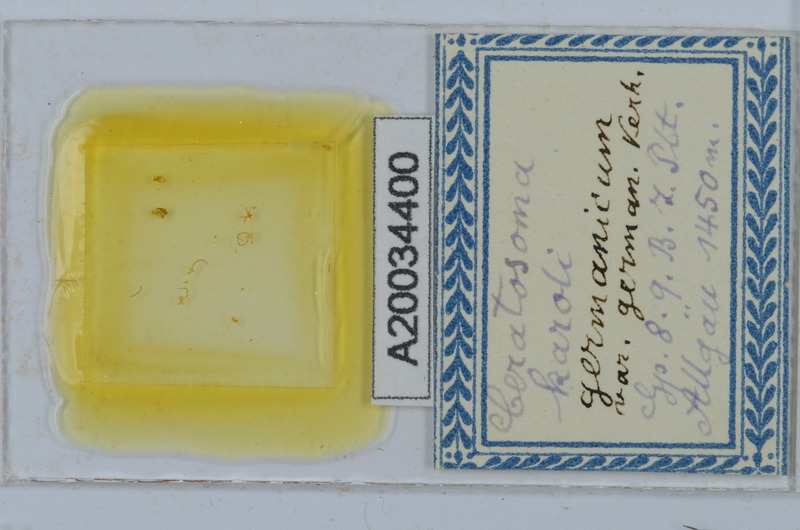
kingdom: Animalia
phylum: Arthropoda
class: Diplopoda
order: Chordeumatida
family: Craspedosomatidae
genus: Ochogona
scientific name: Ochogona caroli
